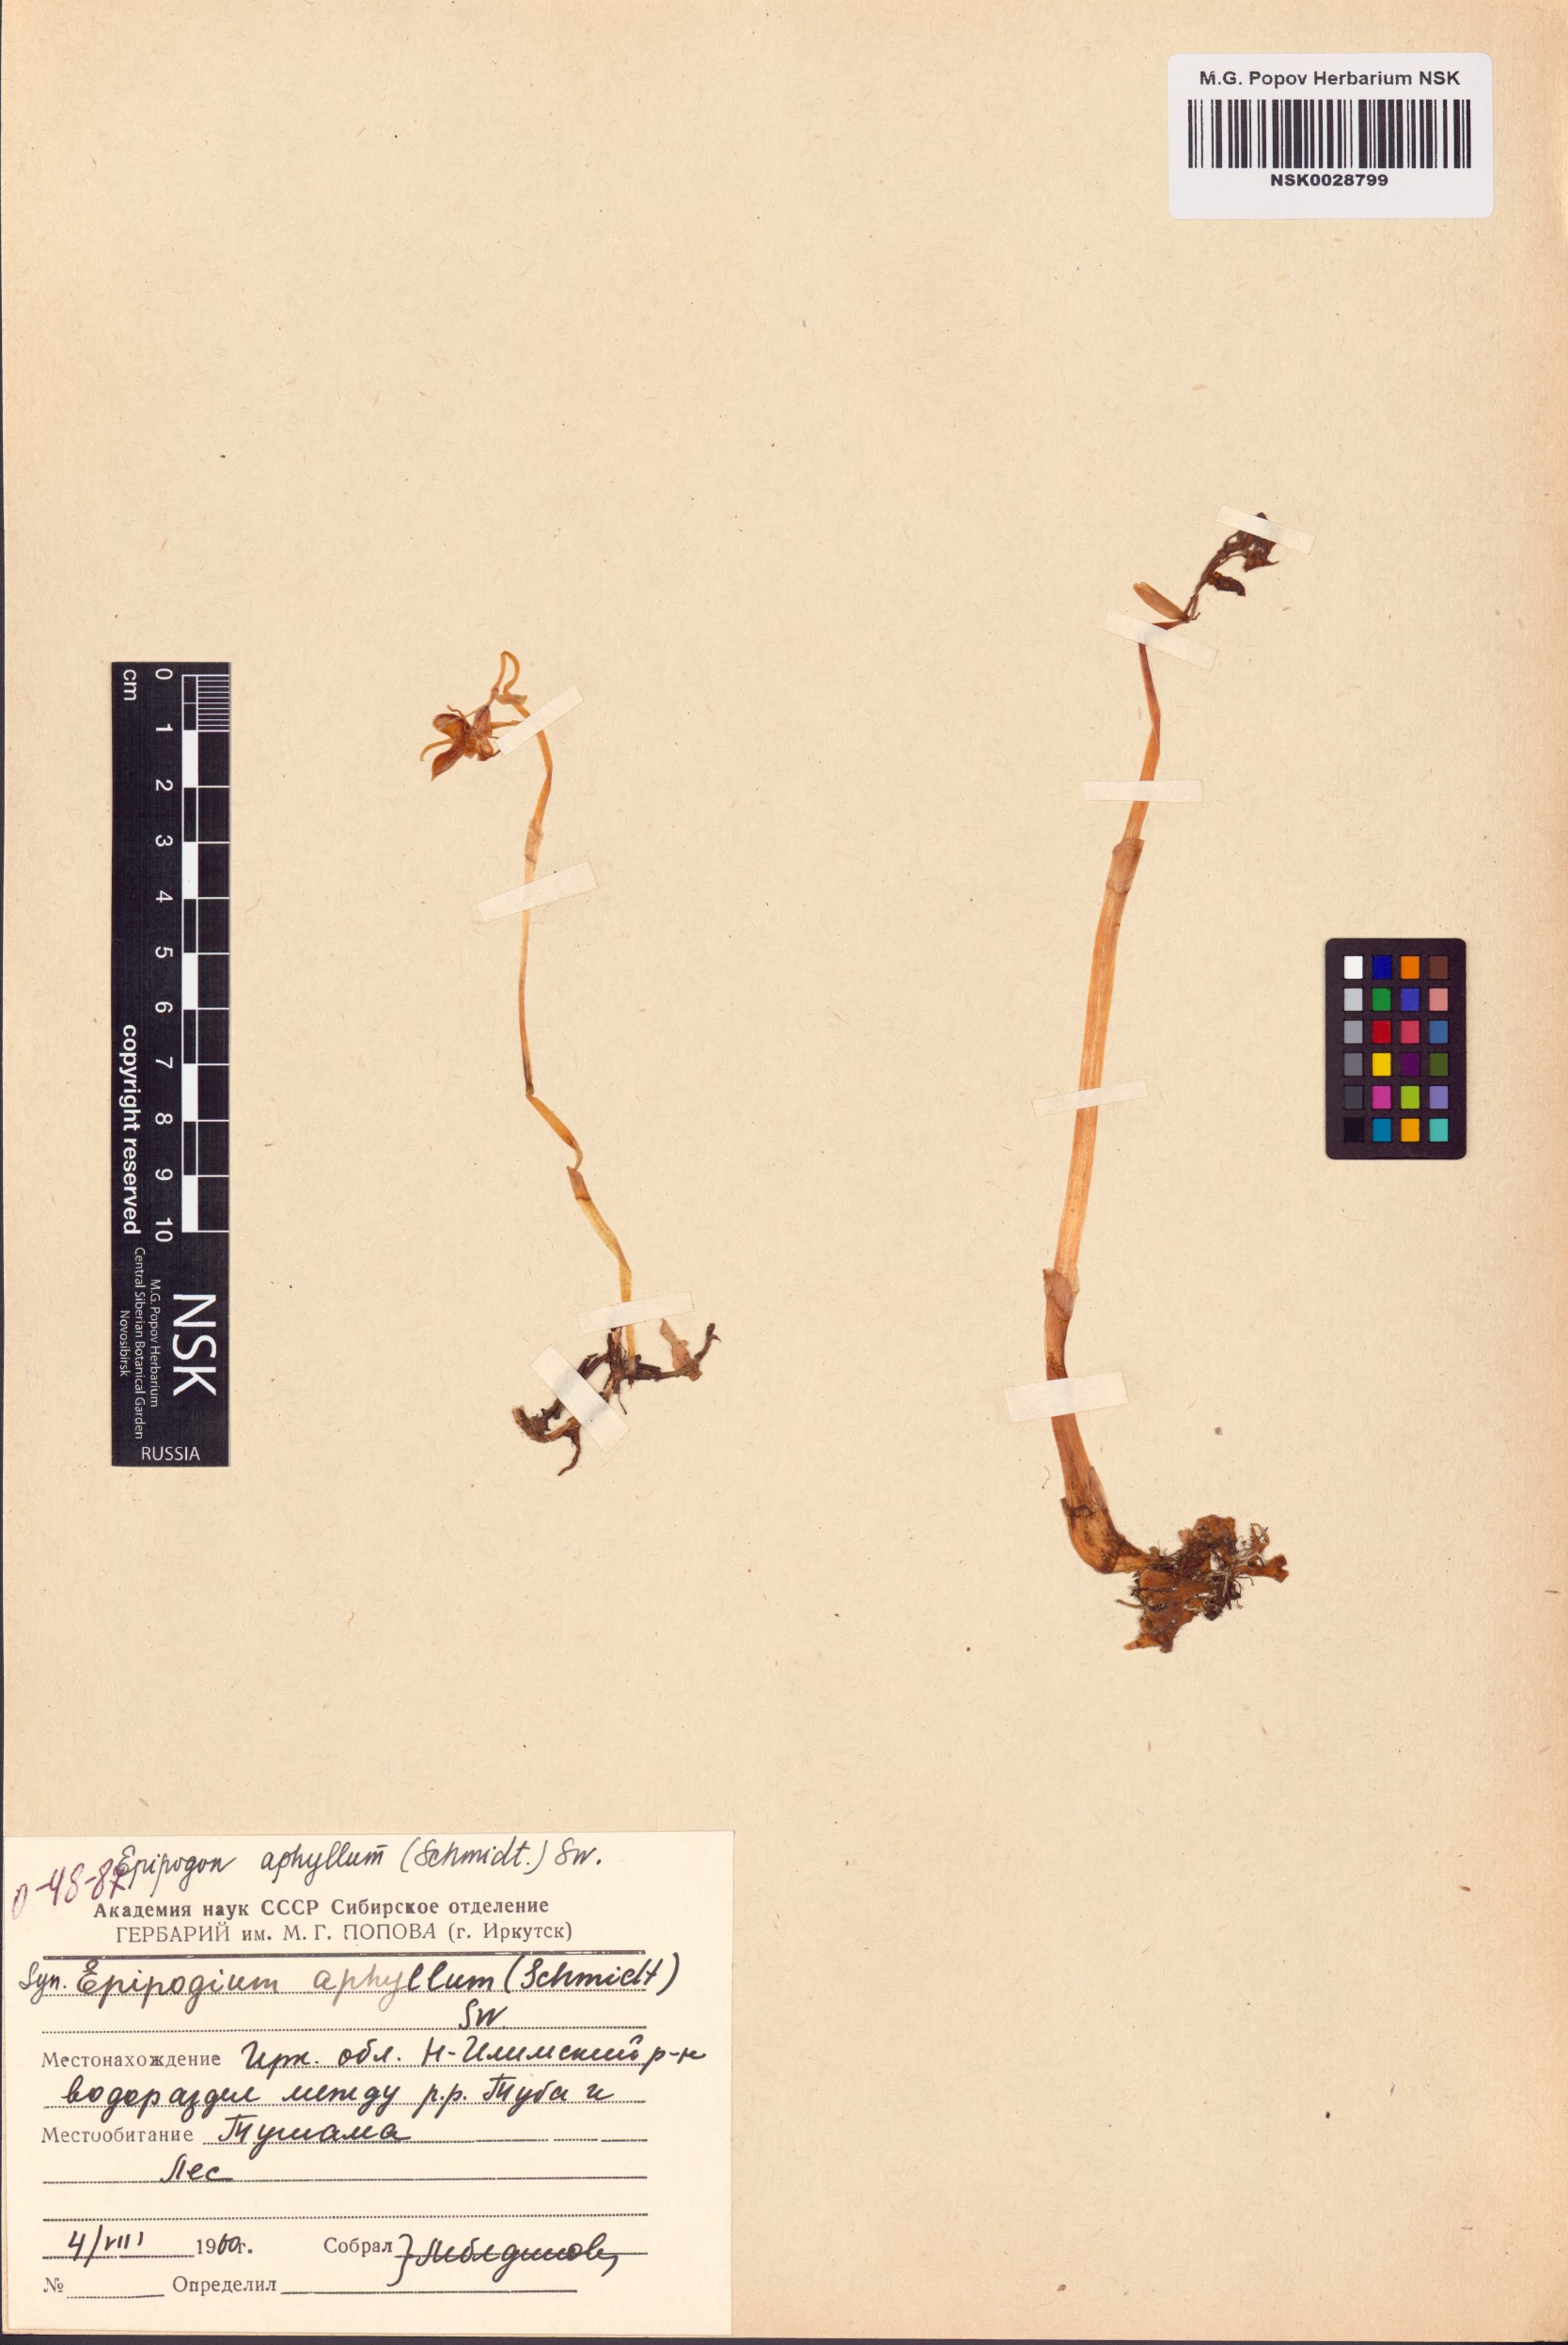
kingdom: Plantae
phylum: Tracheophyta
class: Liliopsida
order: Asparagales
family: Orchidaceae
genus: Epipogium
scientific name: Epipogium aphyllum
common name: Ghost orchid
